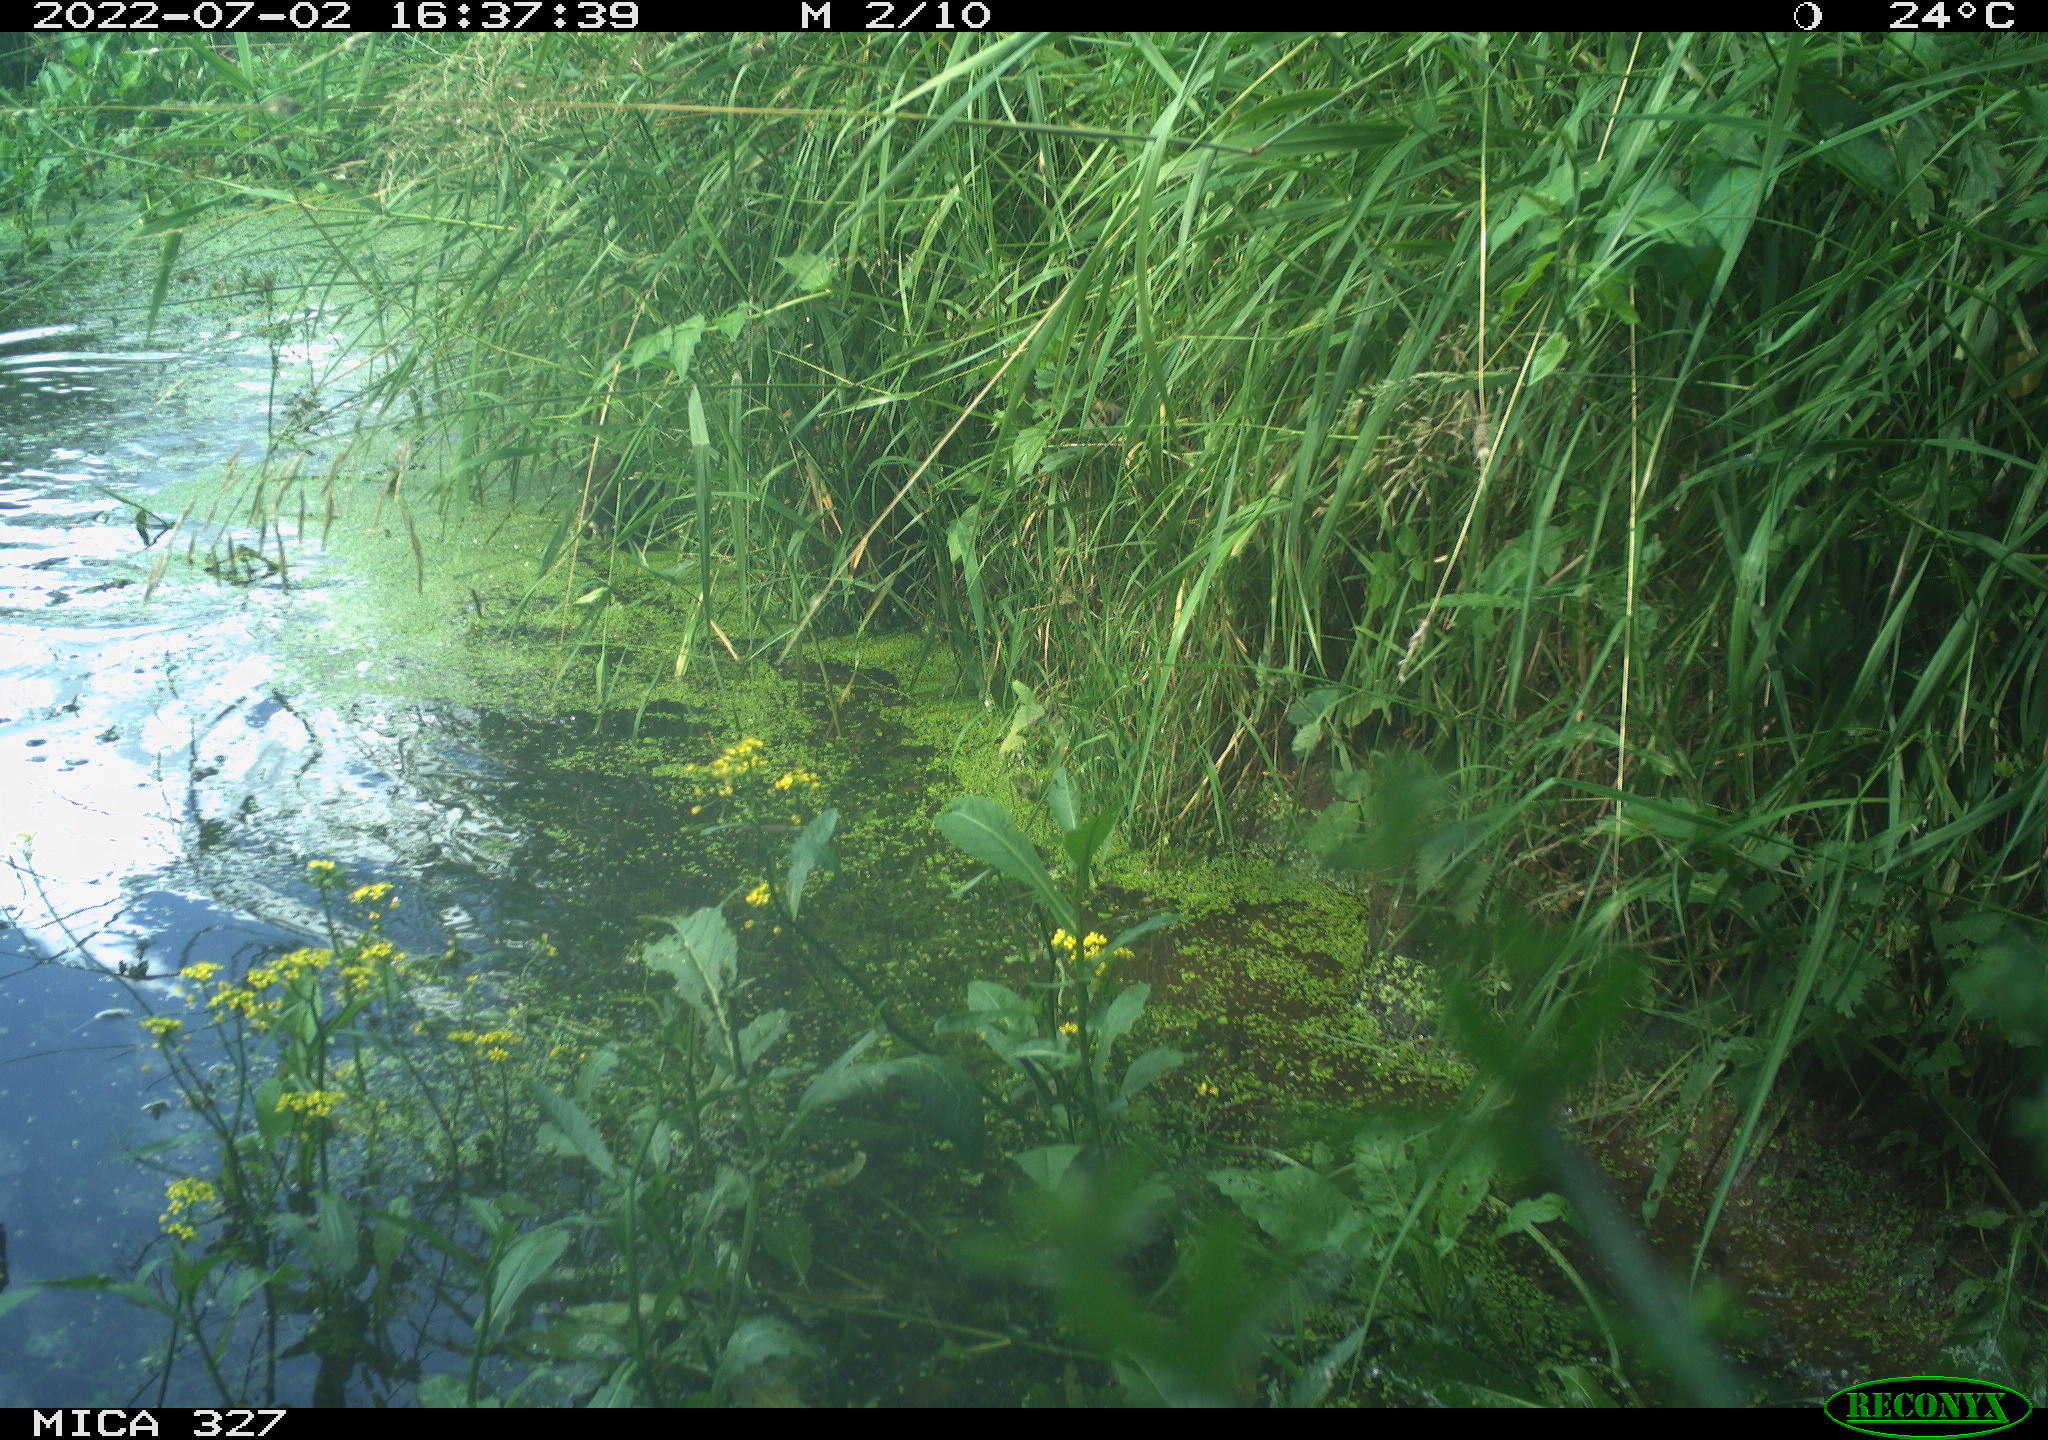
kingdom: Animalia
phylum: Chordata
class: Aves
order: Gruiformes
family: Rallidae
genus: Gallinula
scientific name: Gallinula chloropus
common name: Common moorhen
